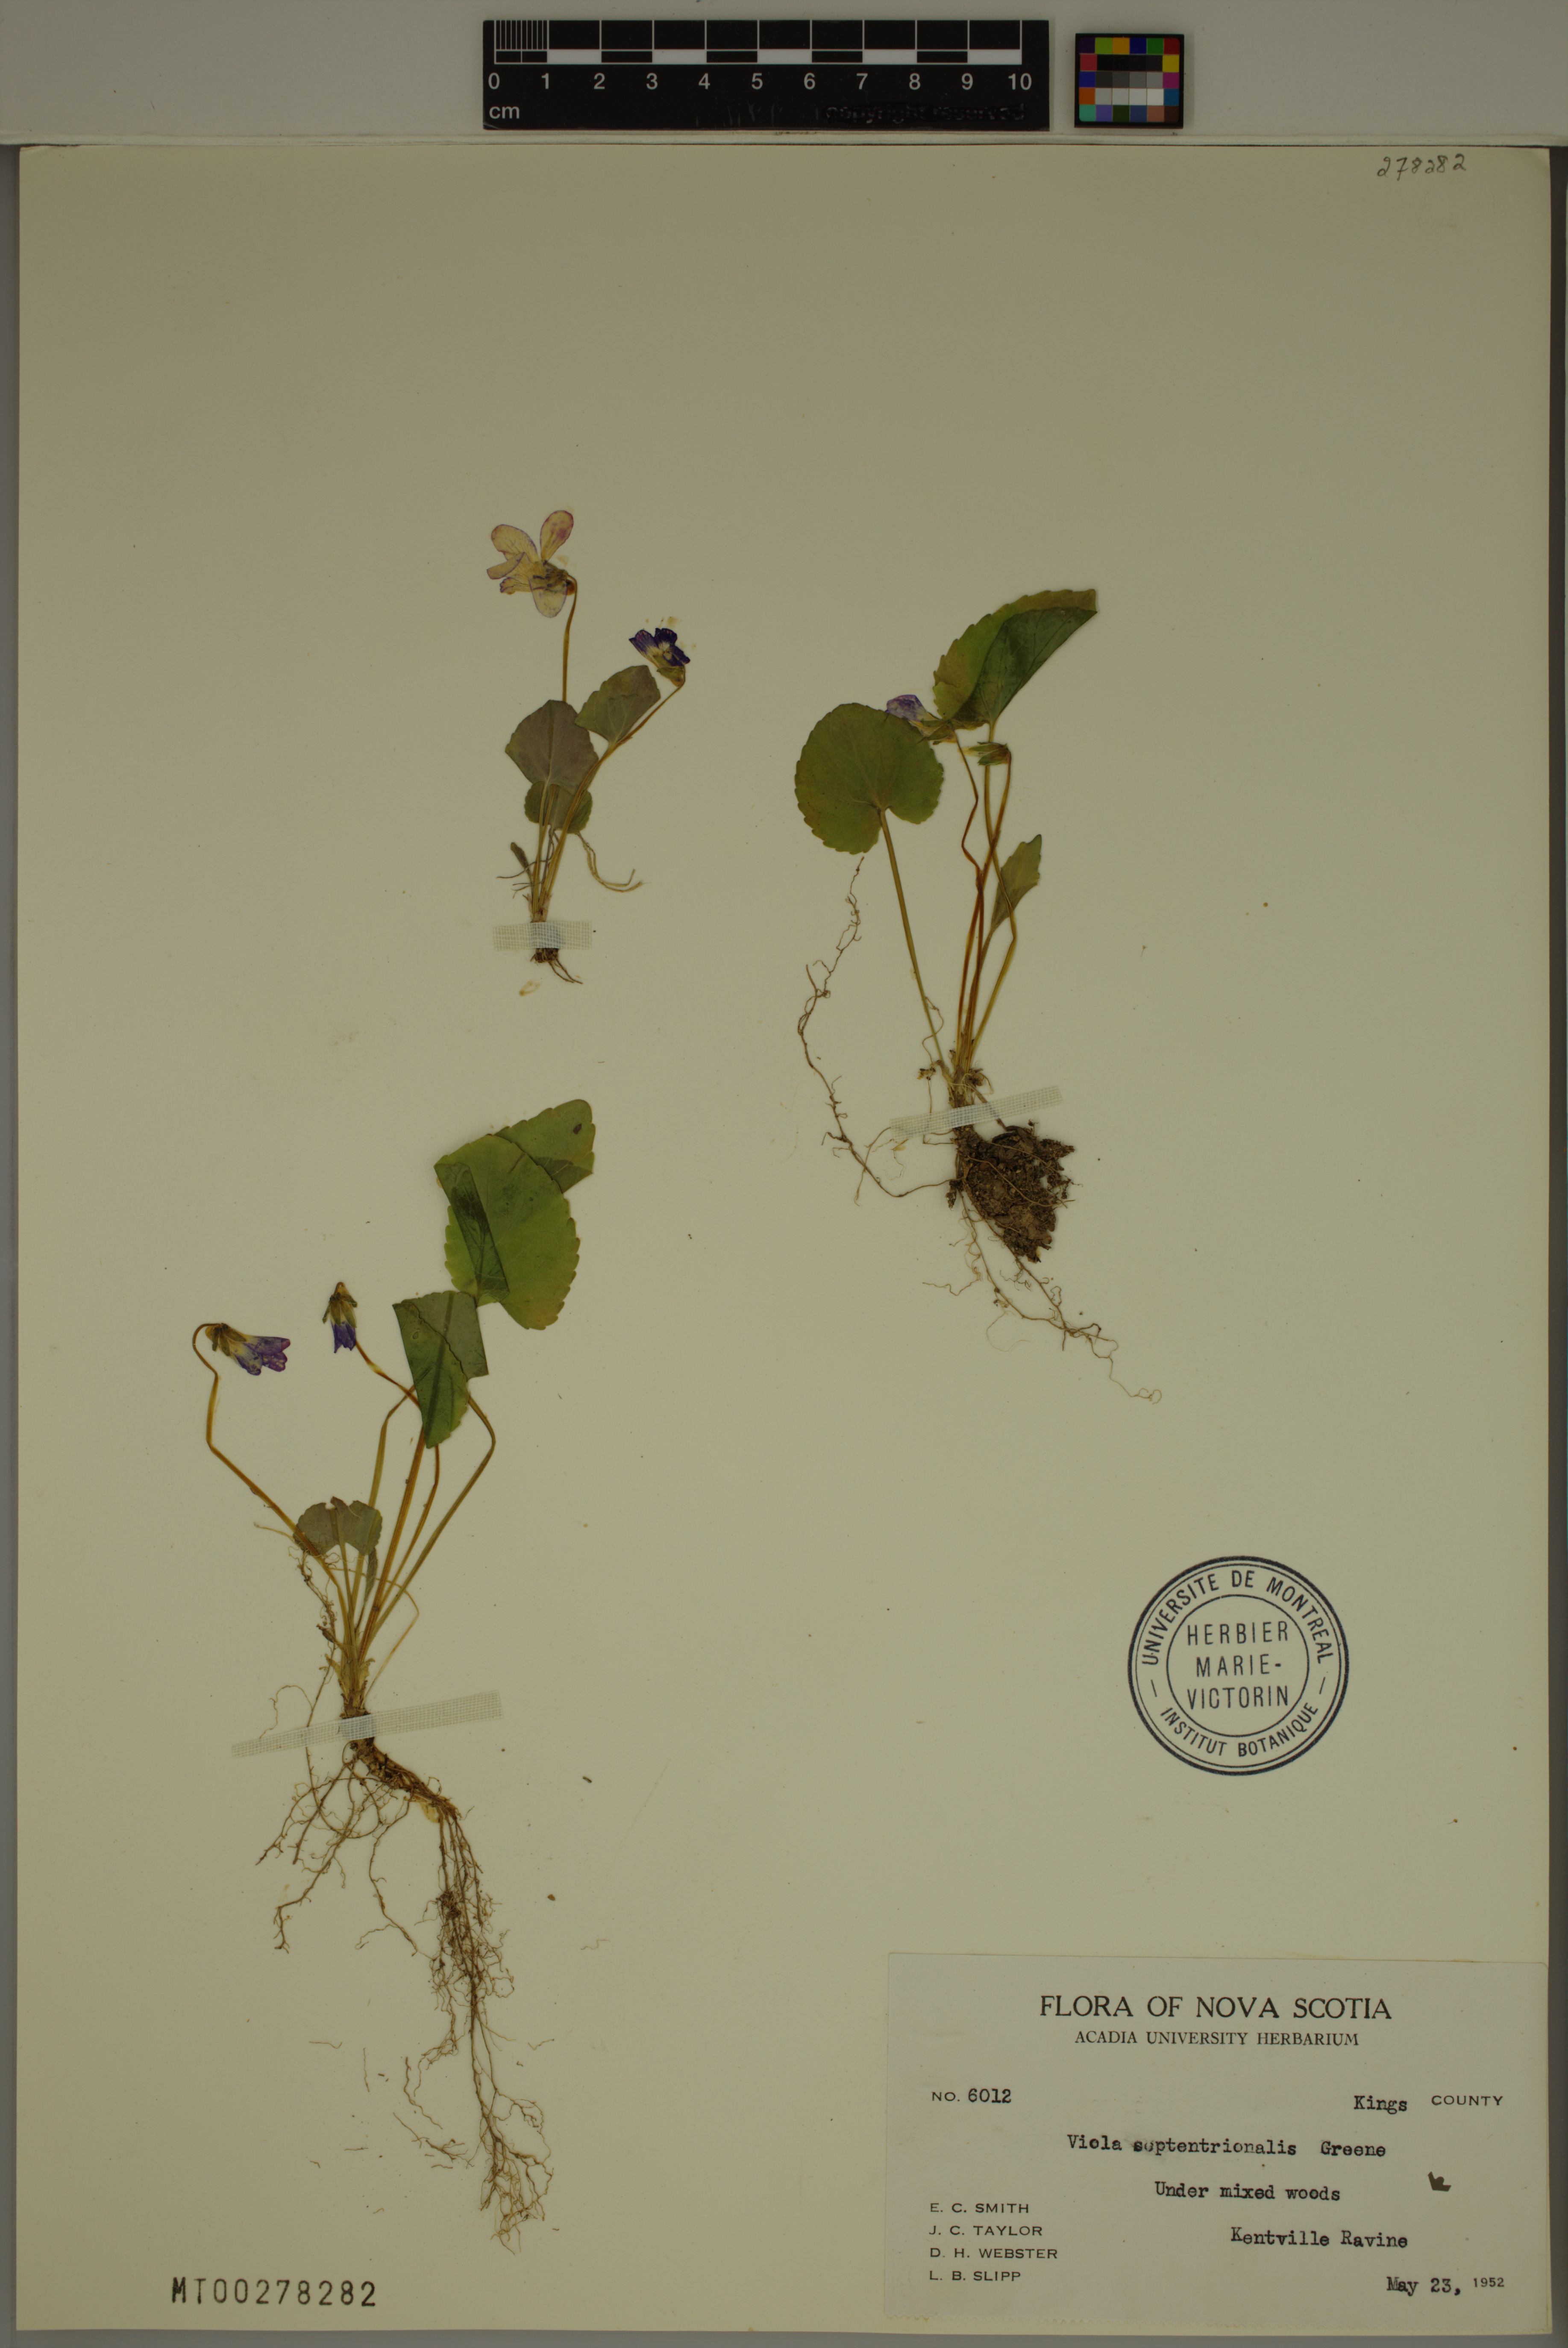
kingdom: Plantae
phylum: Tracheophyta
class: Magnoliopsida
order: Malpighiales
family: Violaceae
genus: Viola
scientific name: Viola septentrionalis
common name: Northern woodland violet
